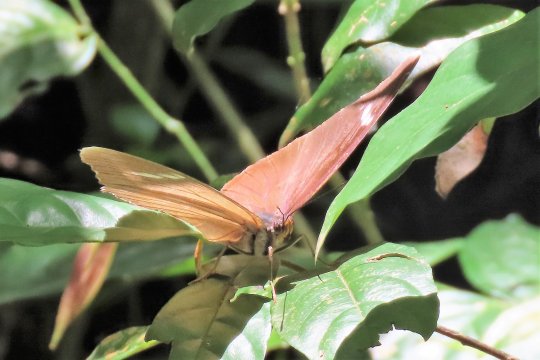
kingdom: Animalia
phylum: Arthropoda
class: Insecta
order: Lepidoptera
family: Nymphalidae
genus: Euphaedra
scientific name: Euphaedra rex
